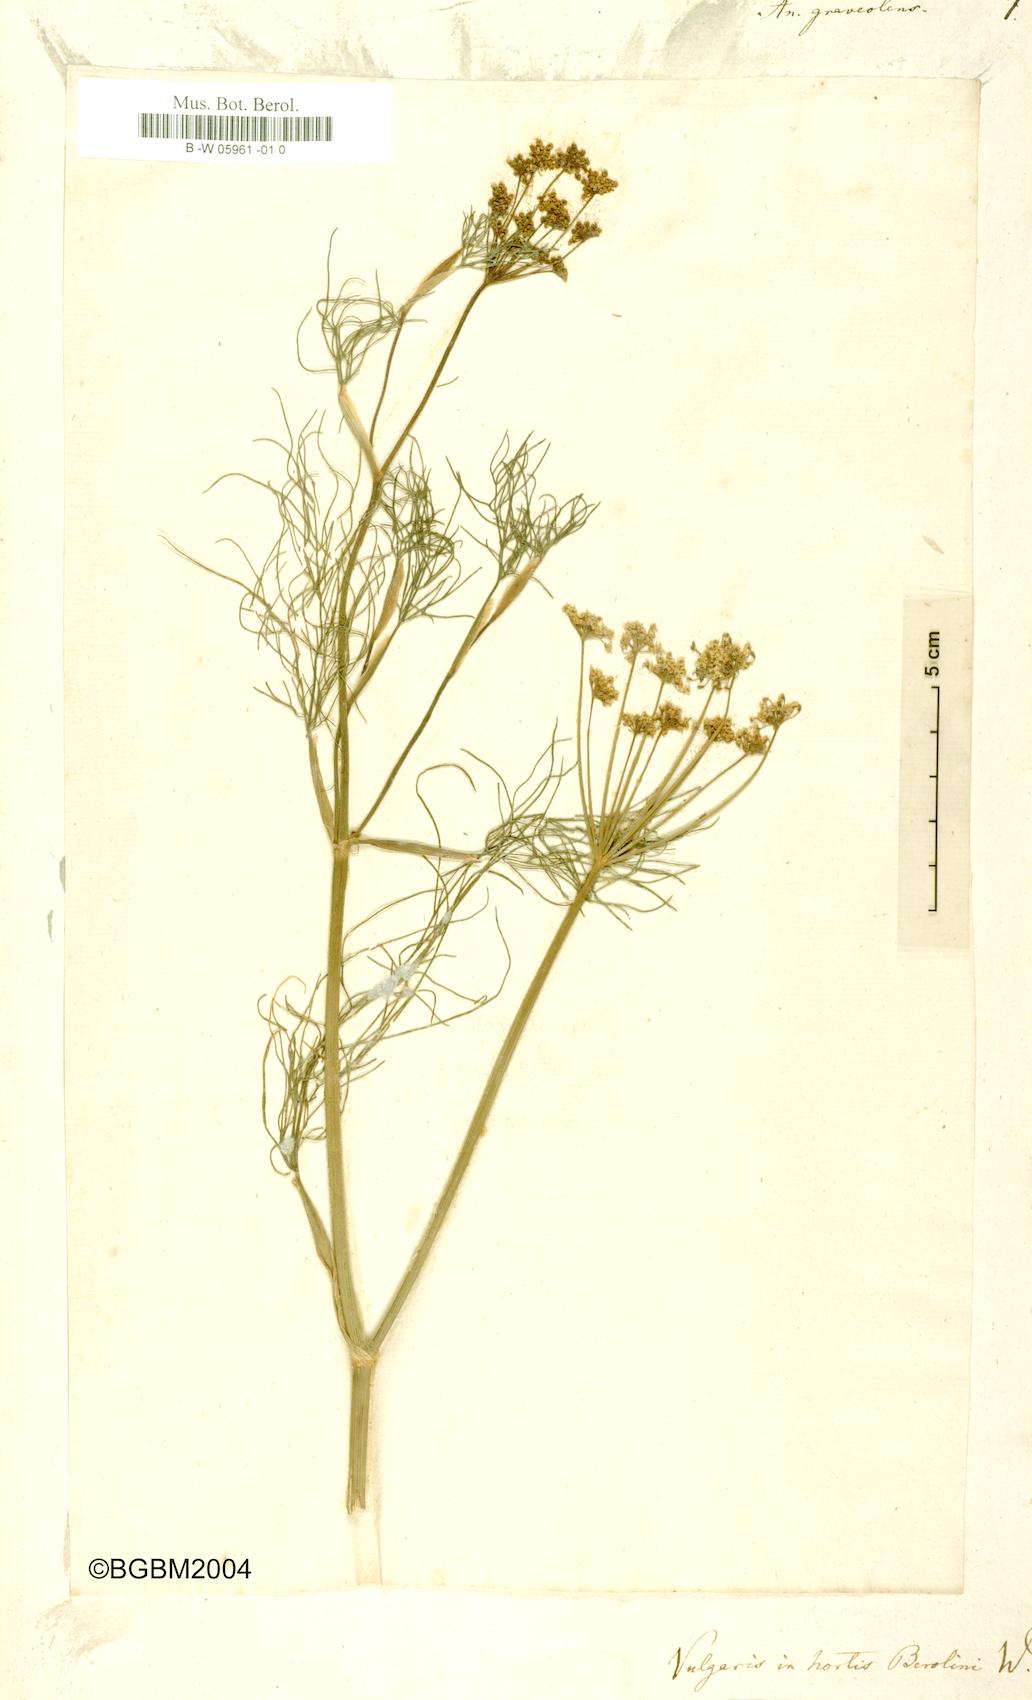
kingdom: Plantae
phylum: Tracheophyta
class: Magnoliopsida
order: Apiales
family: Apiaceae
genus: Anethum
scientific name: Anethum graveolens
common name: Dill
